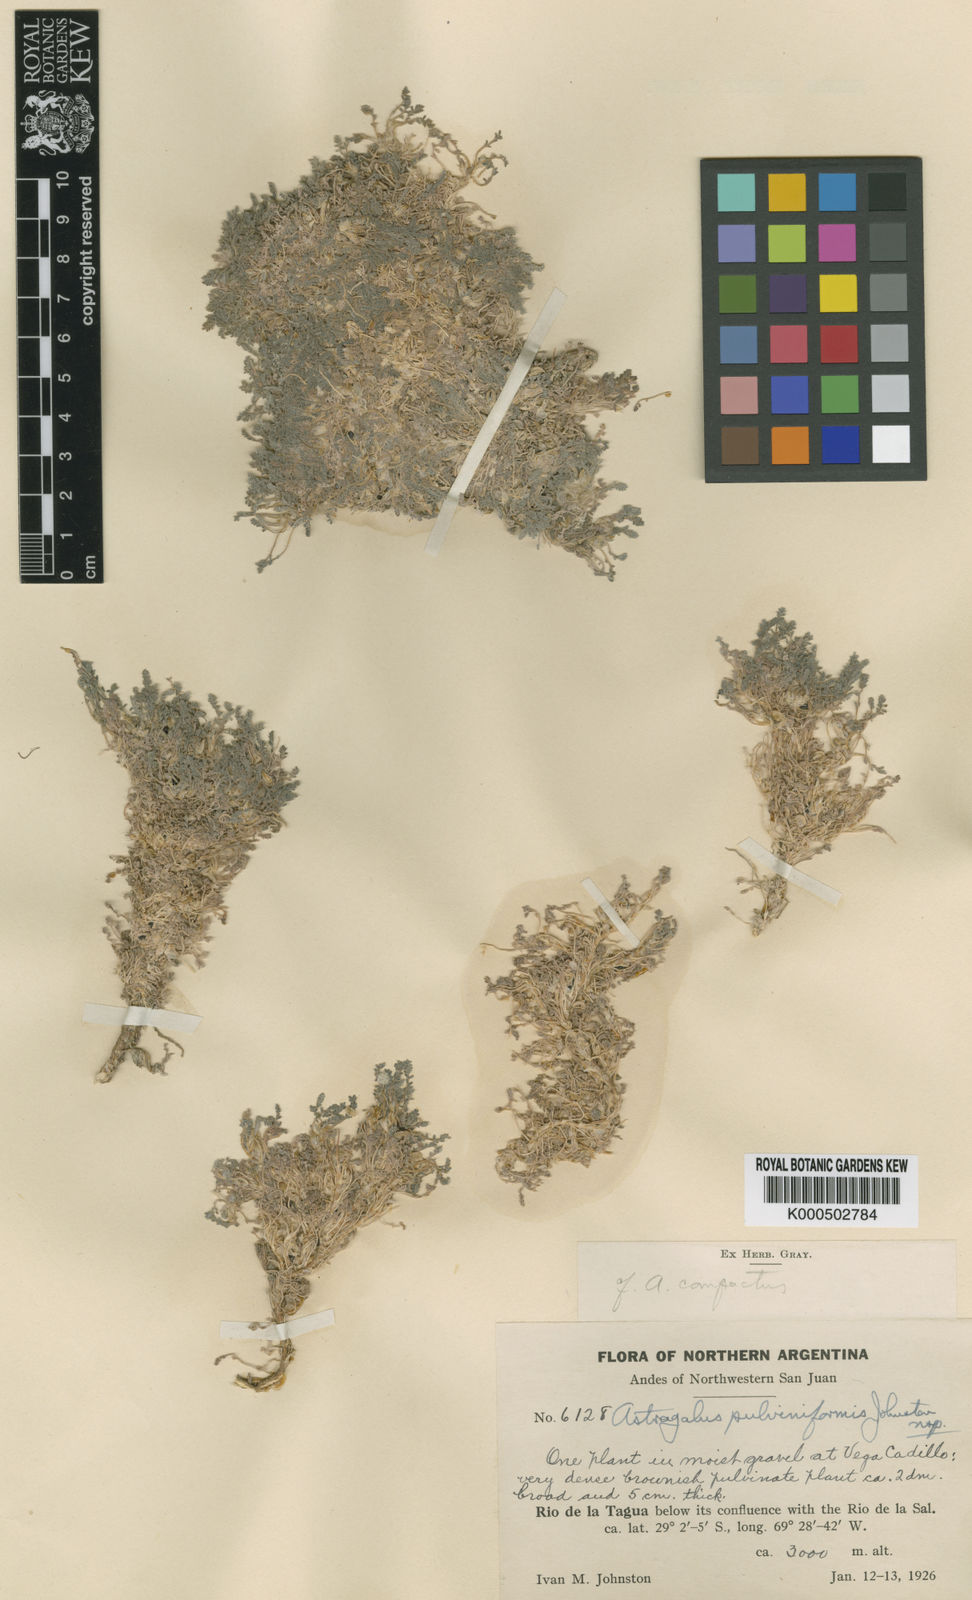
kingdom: Plantae
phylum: Tracheophyta
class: Magnoliopsida
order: Fabales
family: Fabaceae
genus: Astragalus
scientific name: Astragalus pulviniformis
